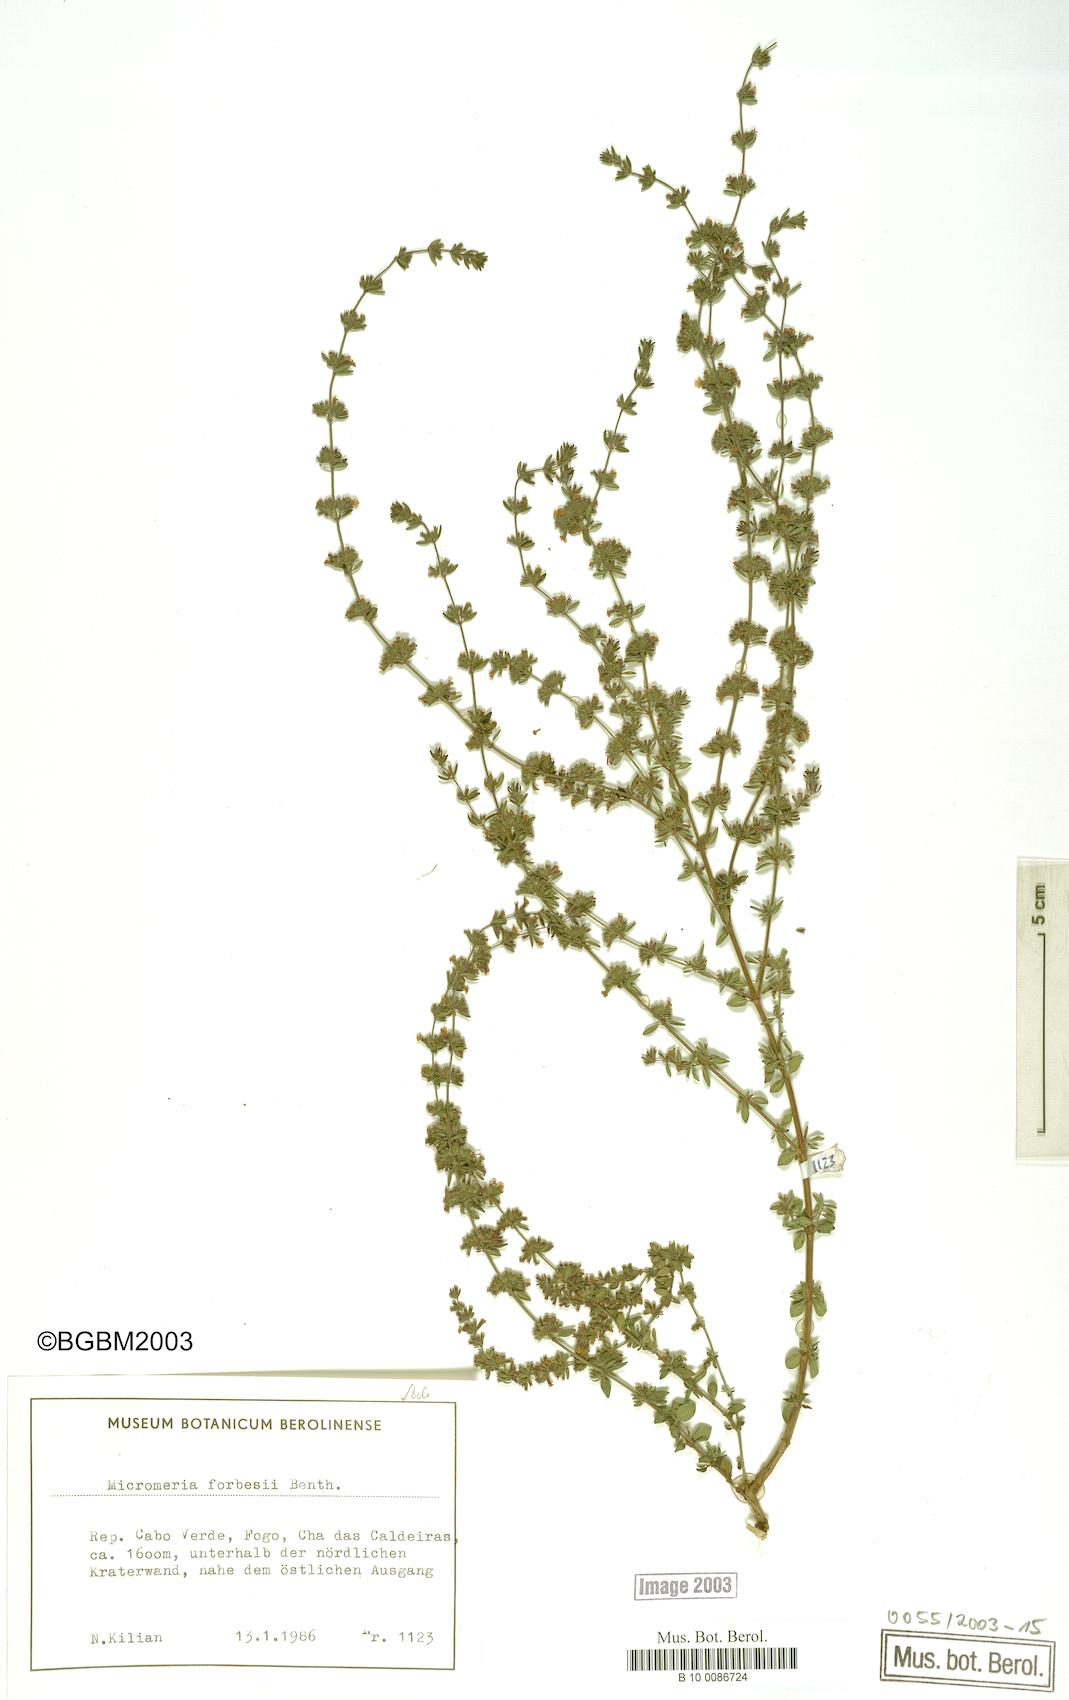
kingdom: Plantae
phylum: Tracheophyta
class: Magnoliopsida
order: Lamiales
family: Lamiaceae
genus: Micromeria
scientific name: Micromeria forbesii
